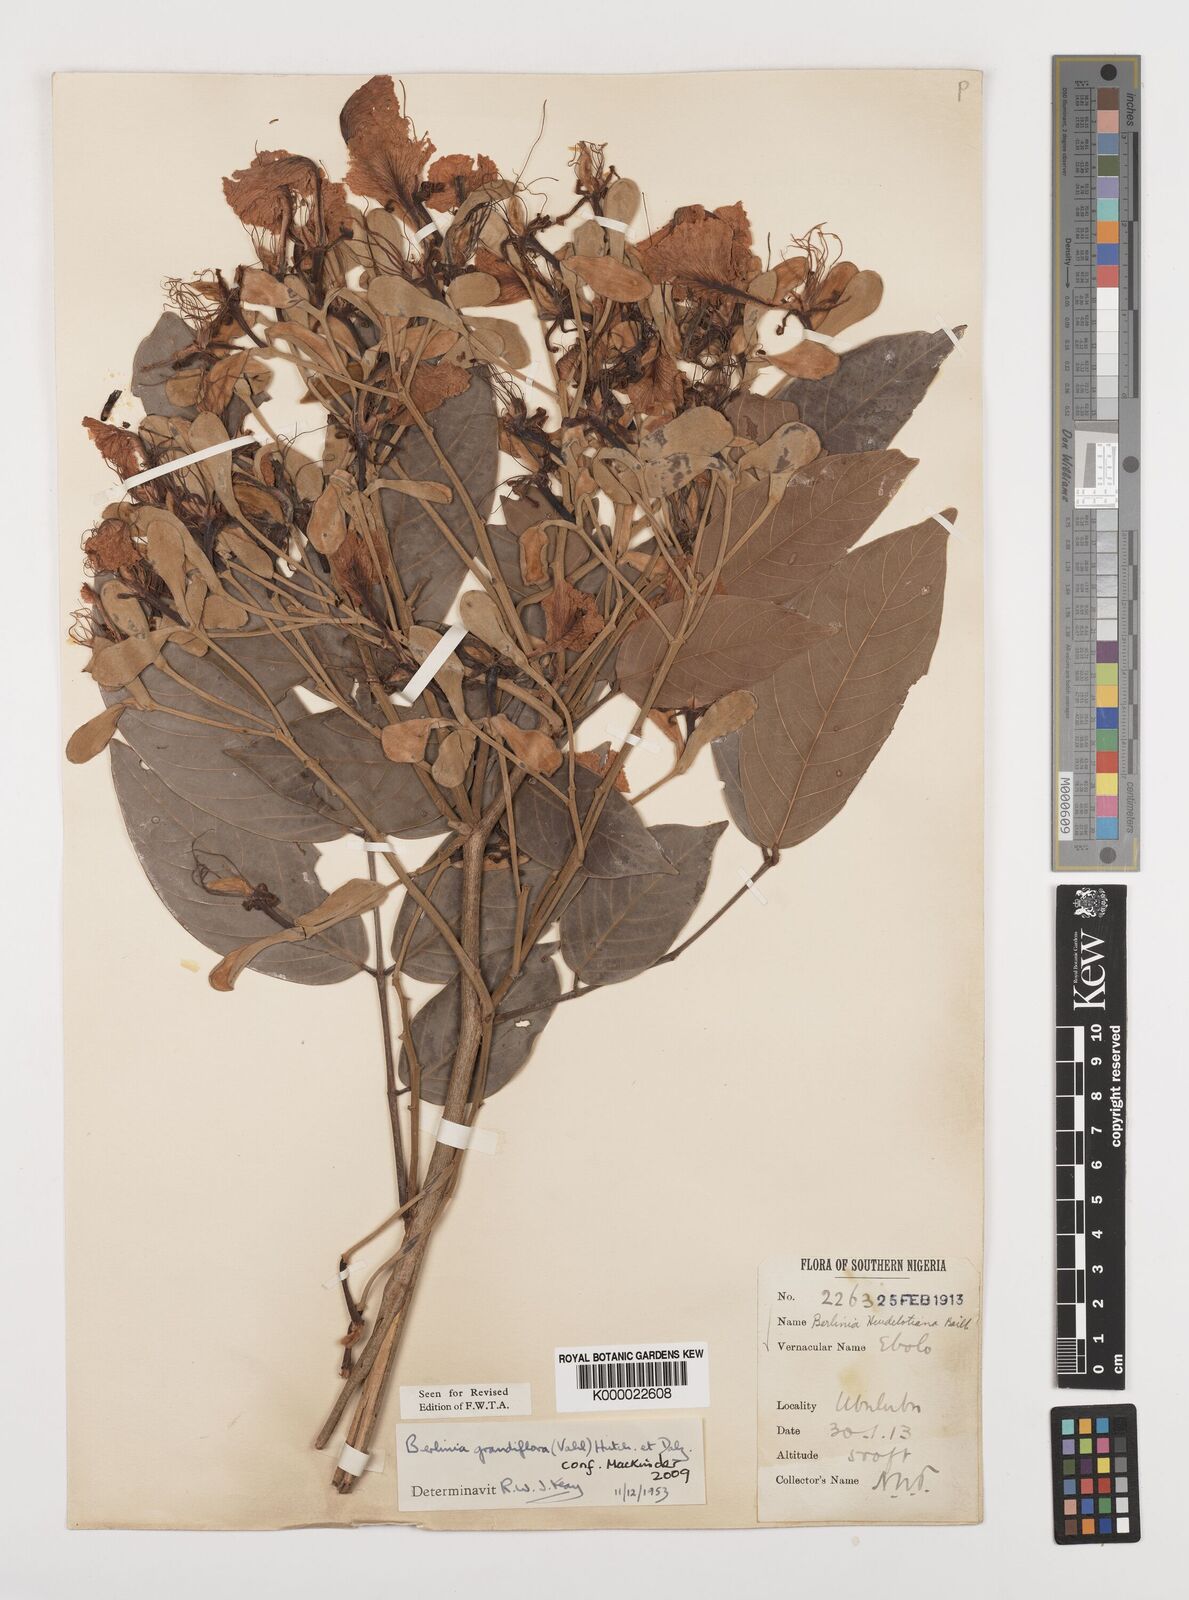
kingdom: Plantae
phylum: Tracheophyta
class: Magnoliopsida
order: Fabales
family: Fabaceae
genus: Berlinia
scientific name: Berlinia grandiflora
